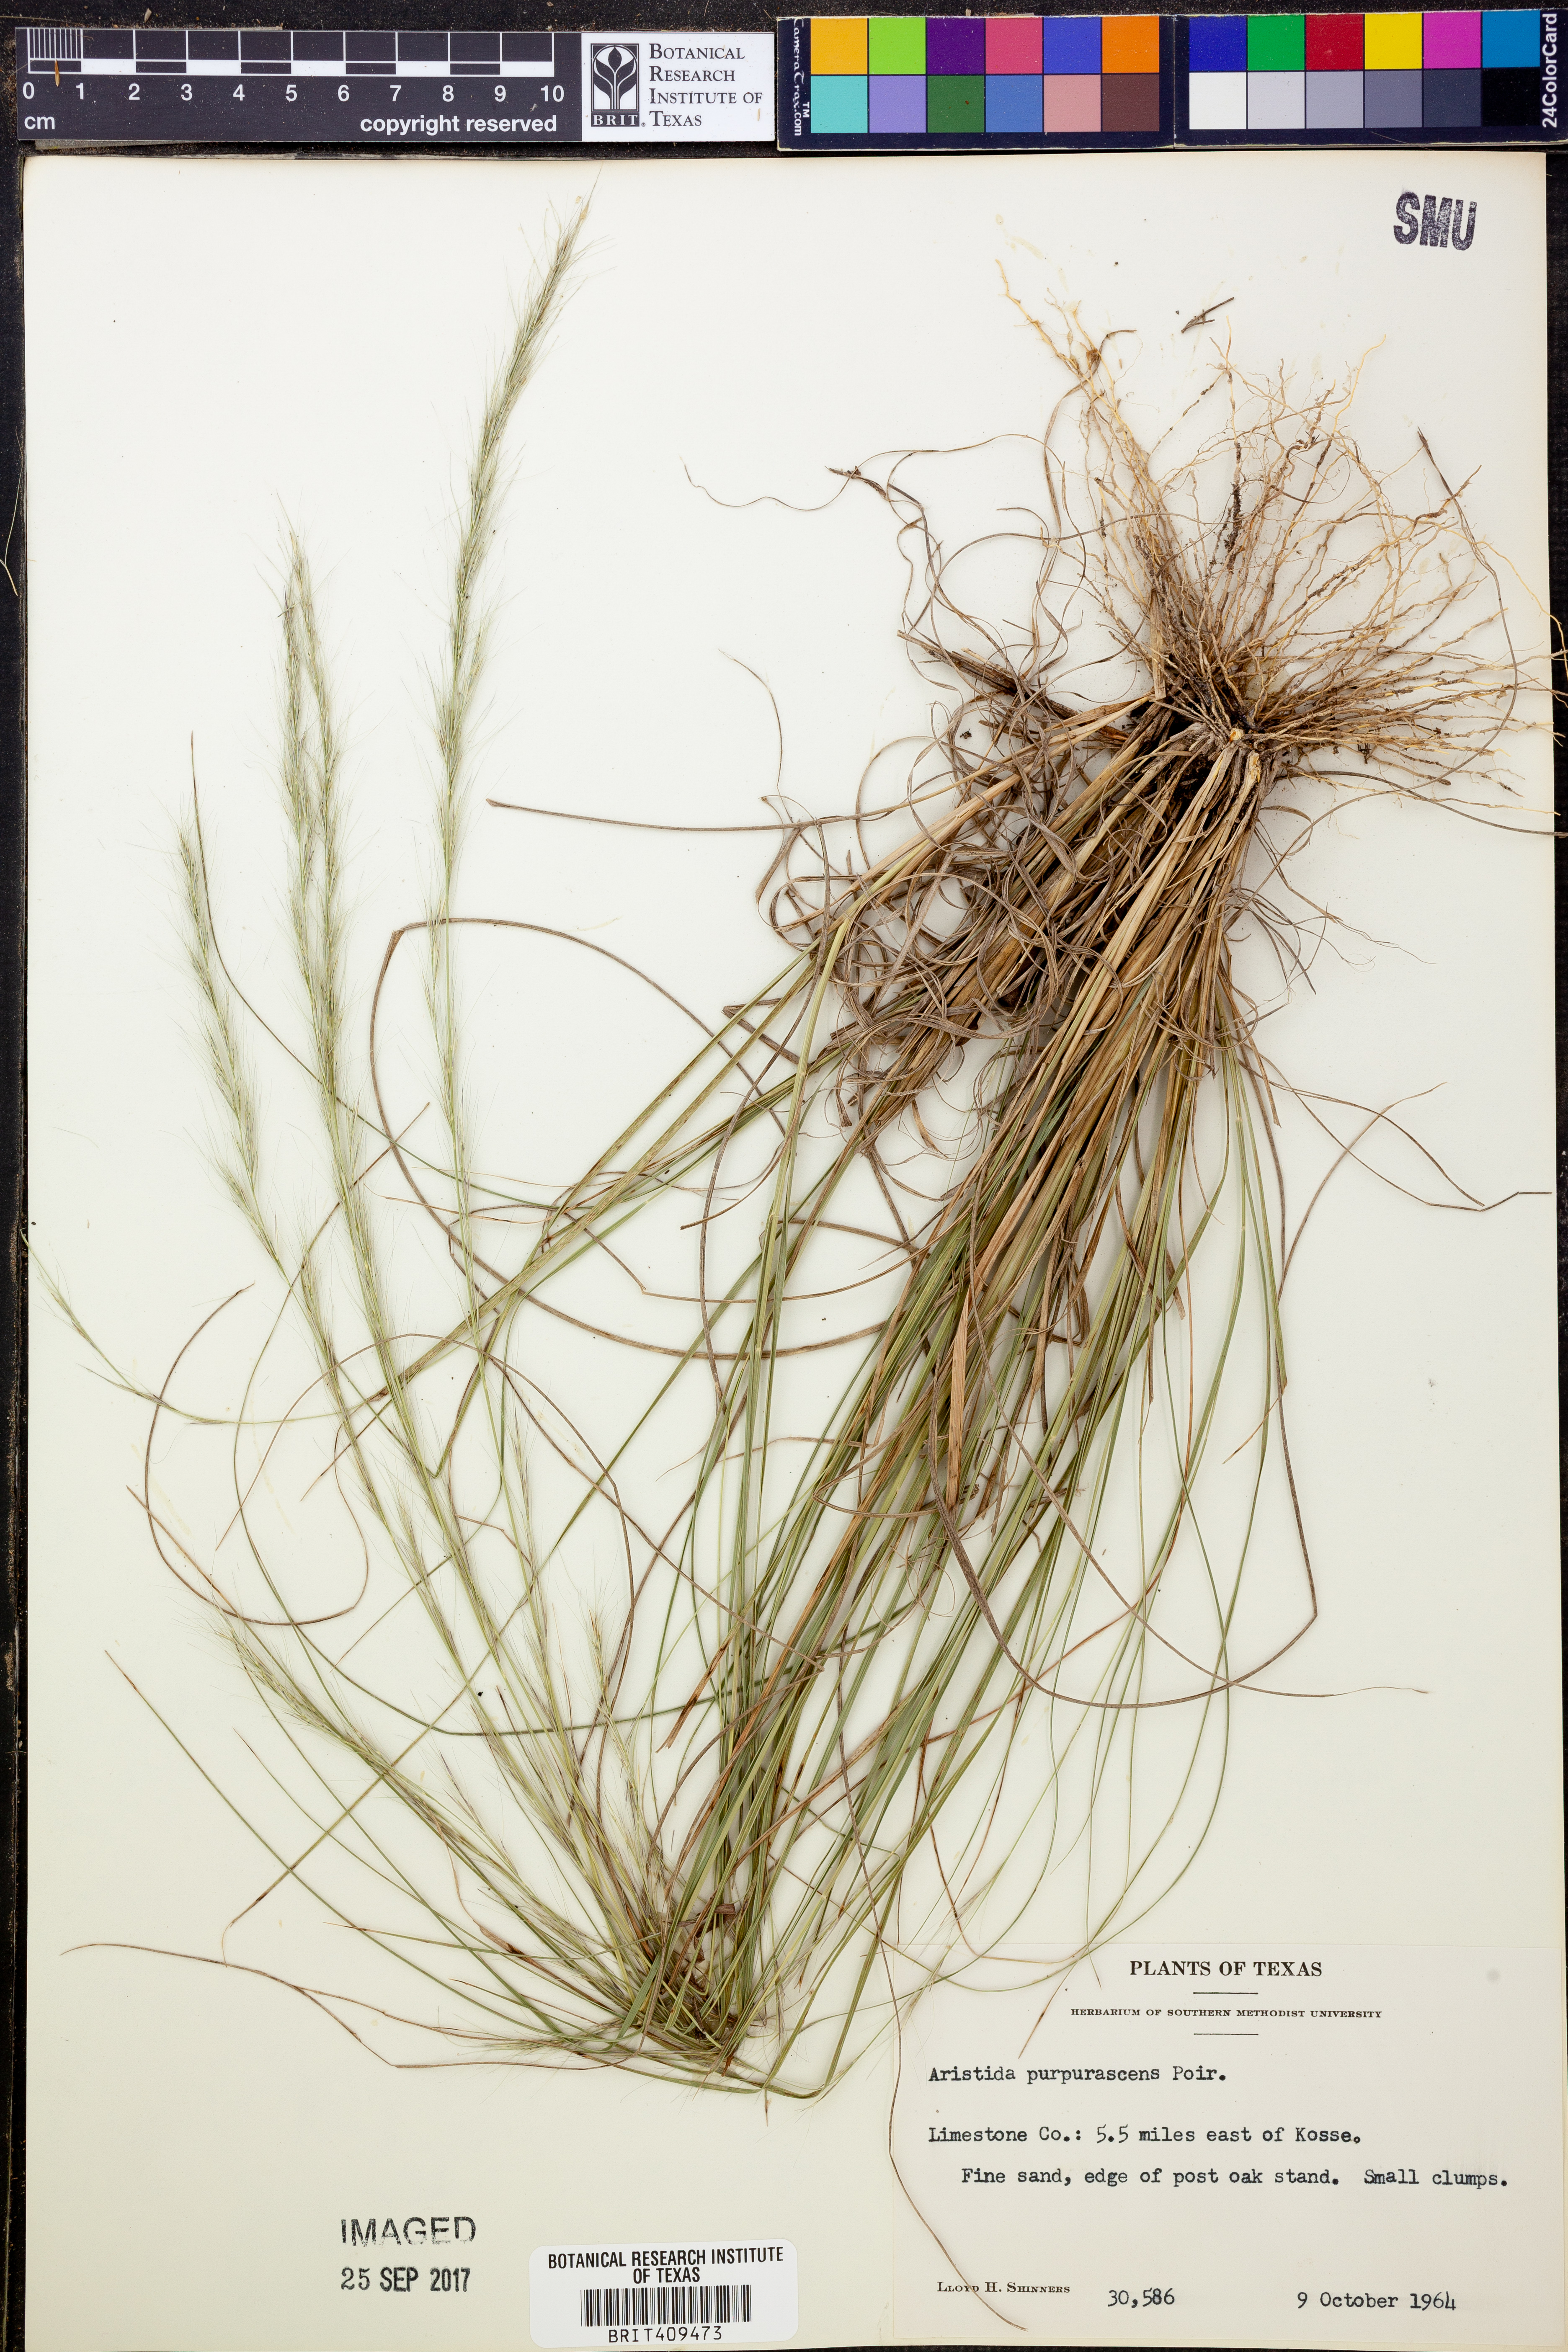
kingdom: Plantae
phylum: Tracheophyta
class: Liliopsida
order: Poales
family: Poaceae
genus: Aristida
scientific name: Aristida purpurascens
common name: Arrow-feather
